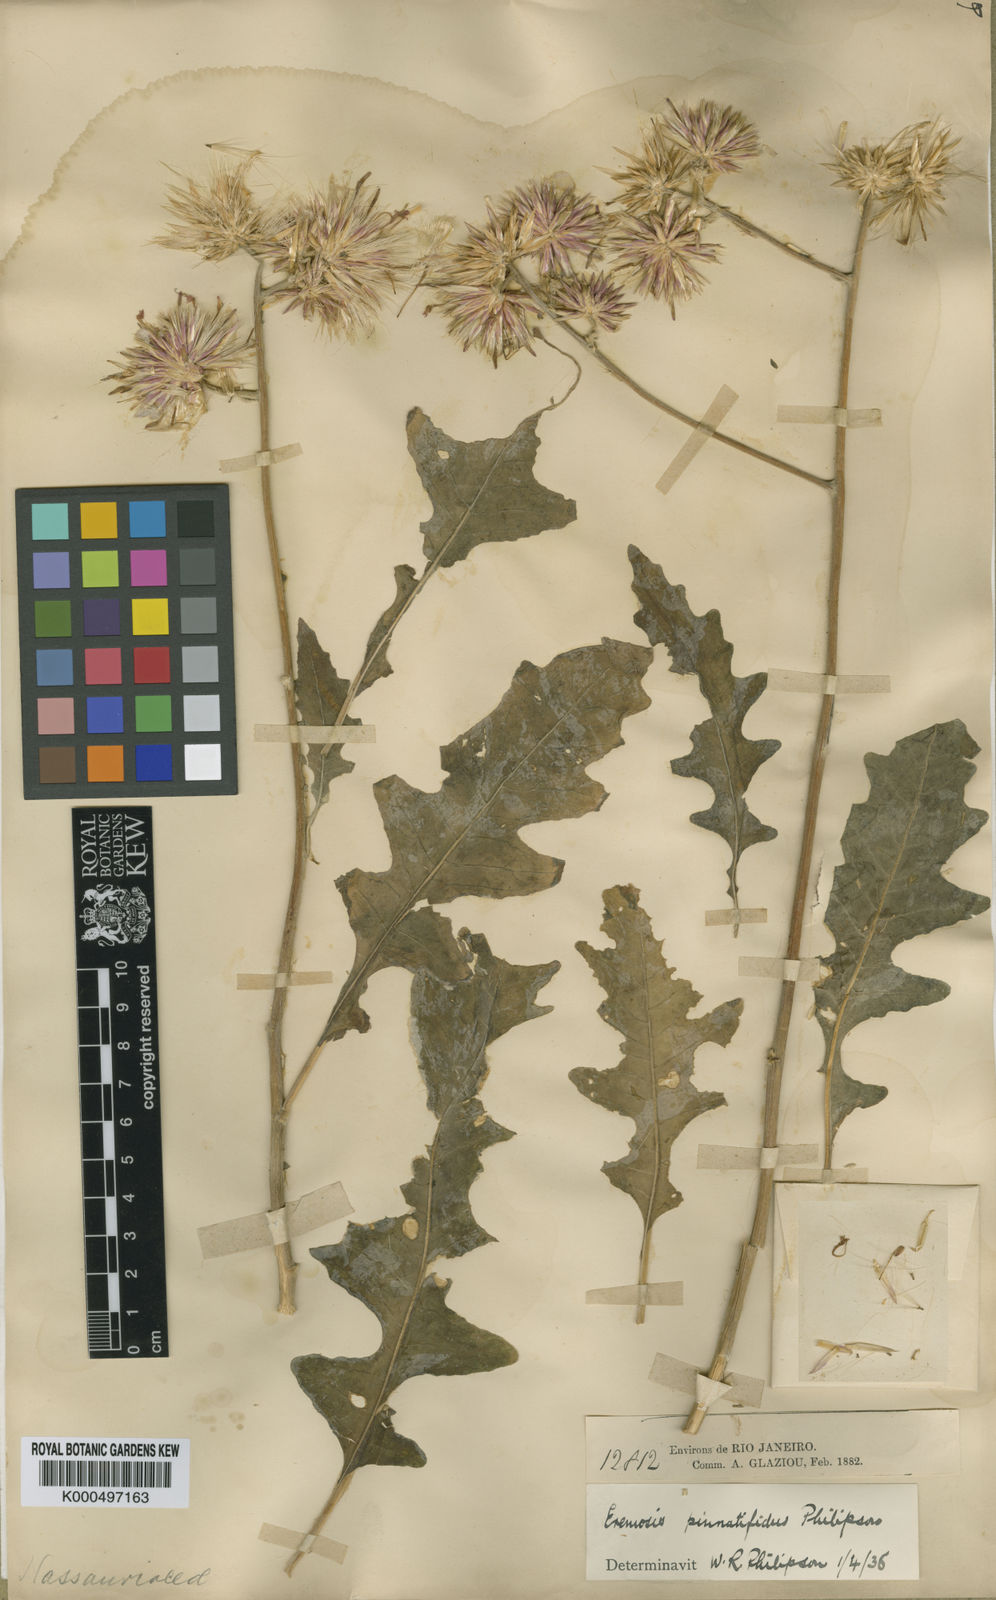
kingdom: Plantae
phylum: Tracheophyta
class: Magnoliopsida
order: Asterales
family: Asteraceae
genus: Chresta
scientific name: Chresta pinnatifida
